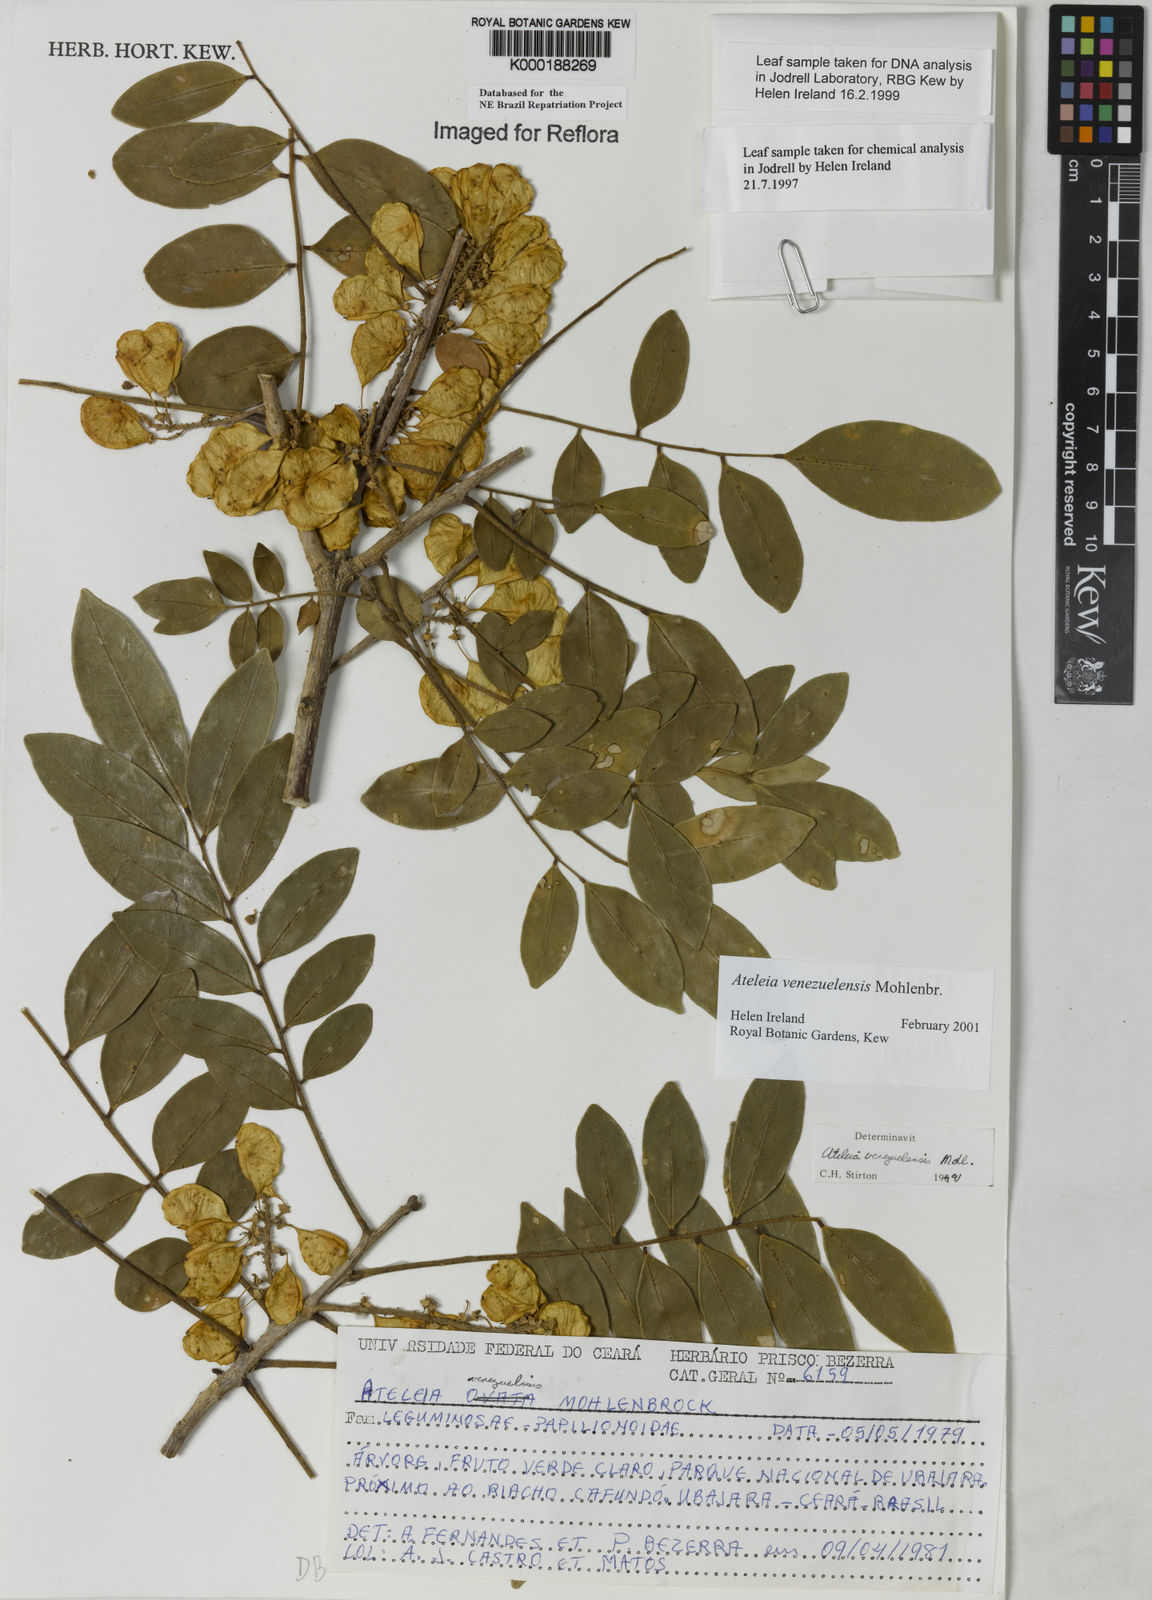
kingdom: Plantae
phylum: Tracheophyta
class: Magnoliopsida
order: Fabales
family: Fabaceae
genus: Ateleia
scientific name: Ateleia venezuelensis
